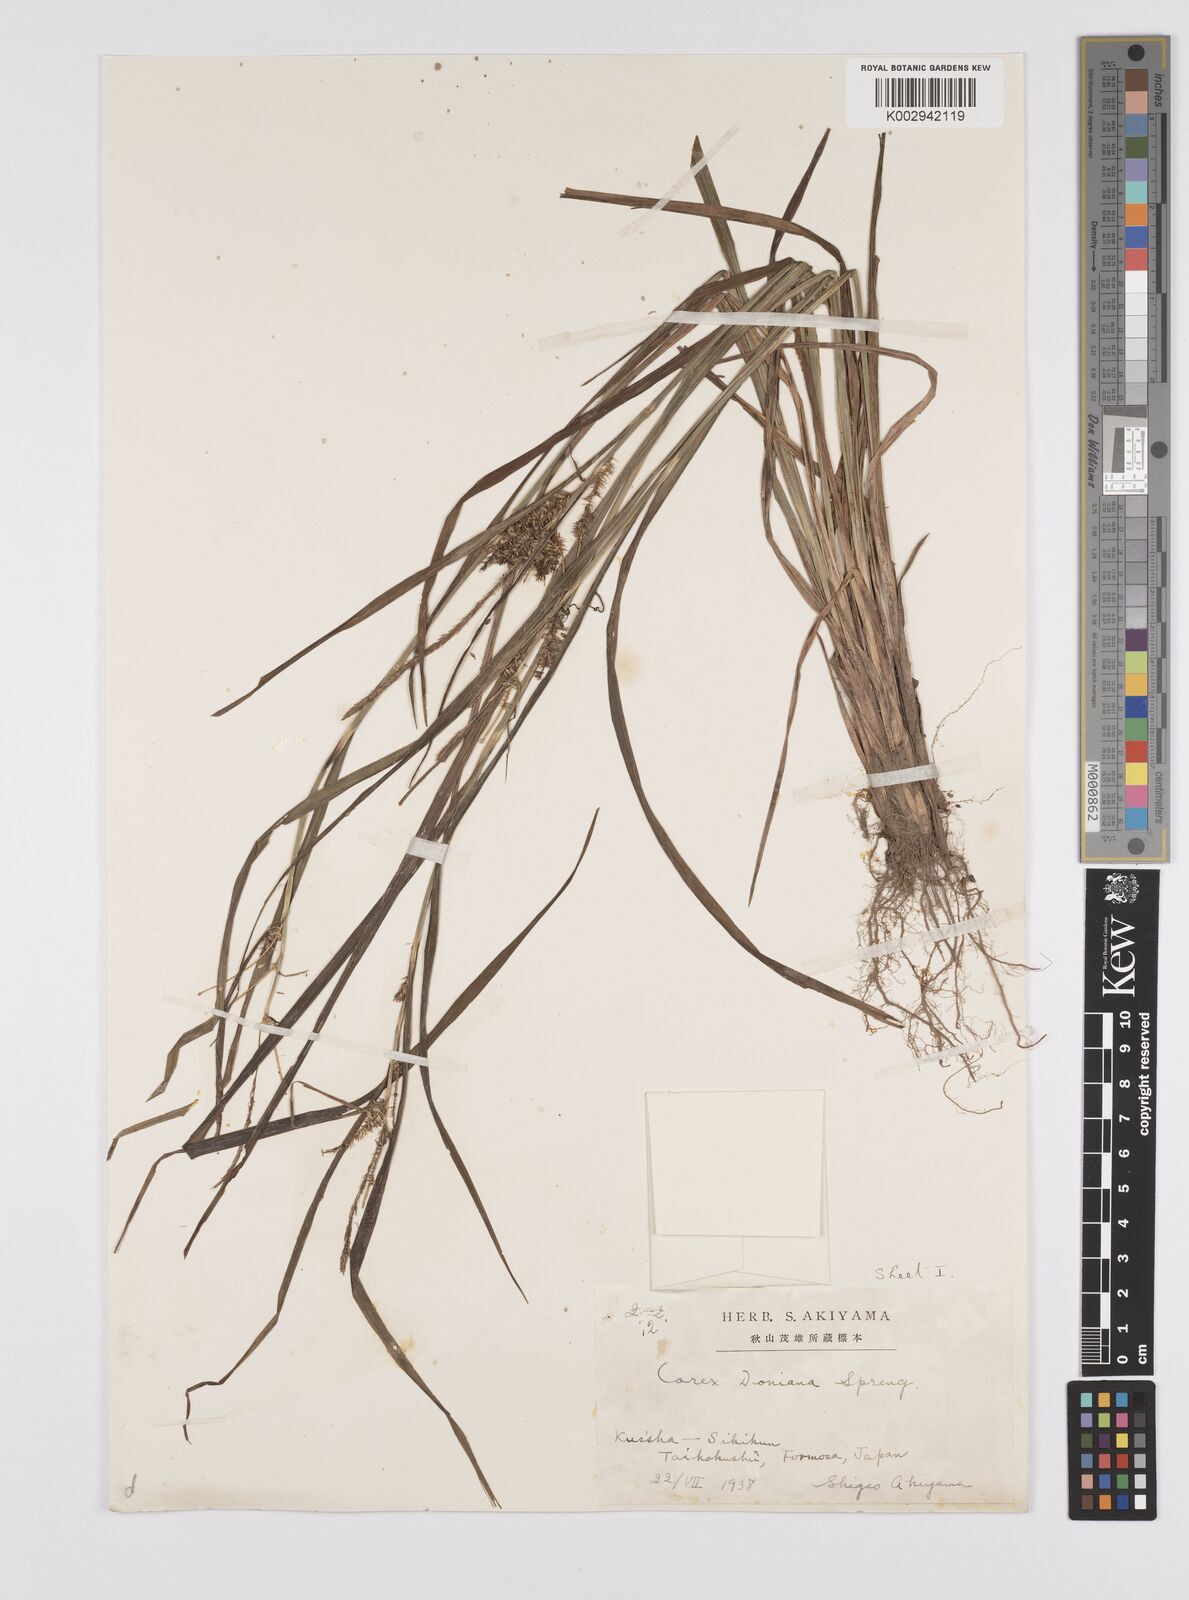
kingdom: Plantae
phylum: Tracheophyta
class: Liliopsida
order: Poales
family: Cyperaceae
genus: Carex
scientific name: Carex japonica
